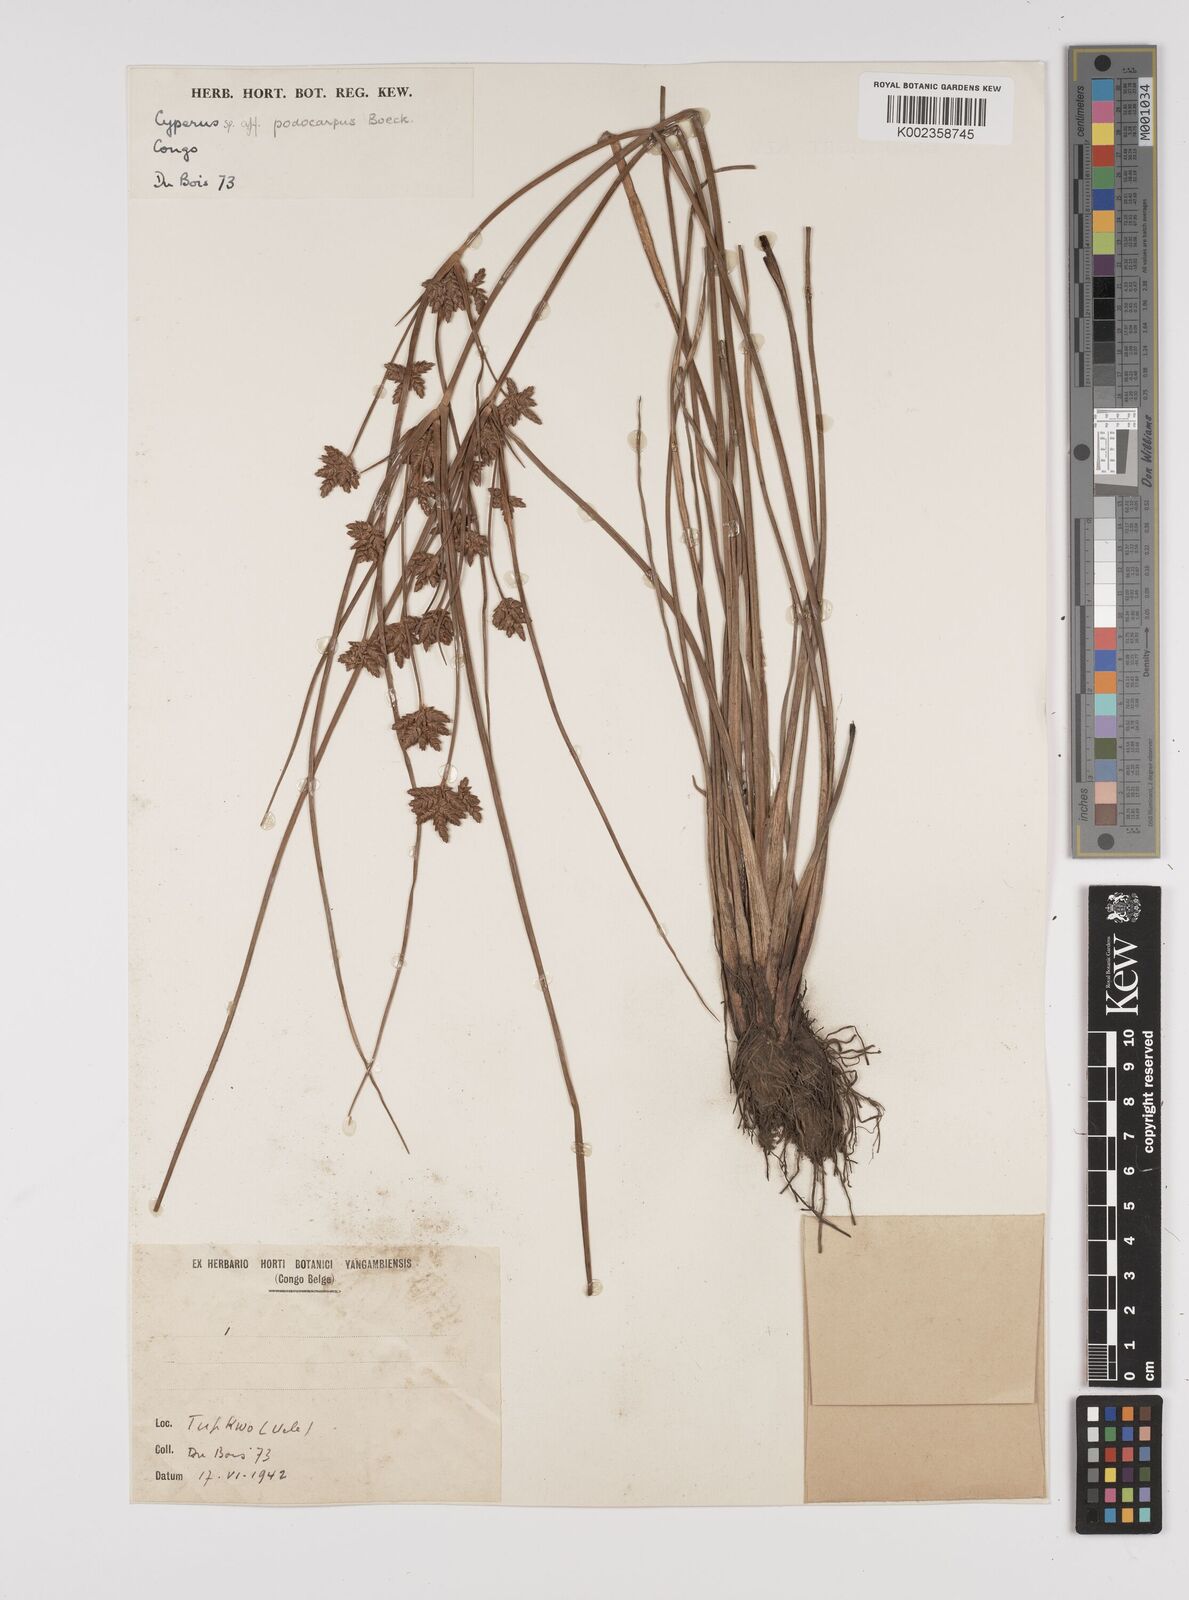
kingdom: Plantae
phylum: Tracheophyta
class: Liliopsida
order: Poales
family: Cyperaceae
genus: Cyperus
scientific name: Cyperus pustulatus
